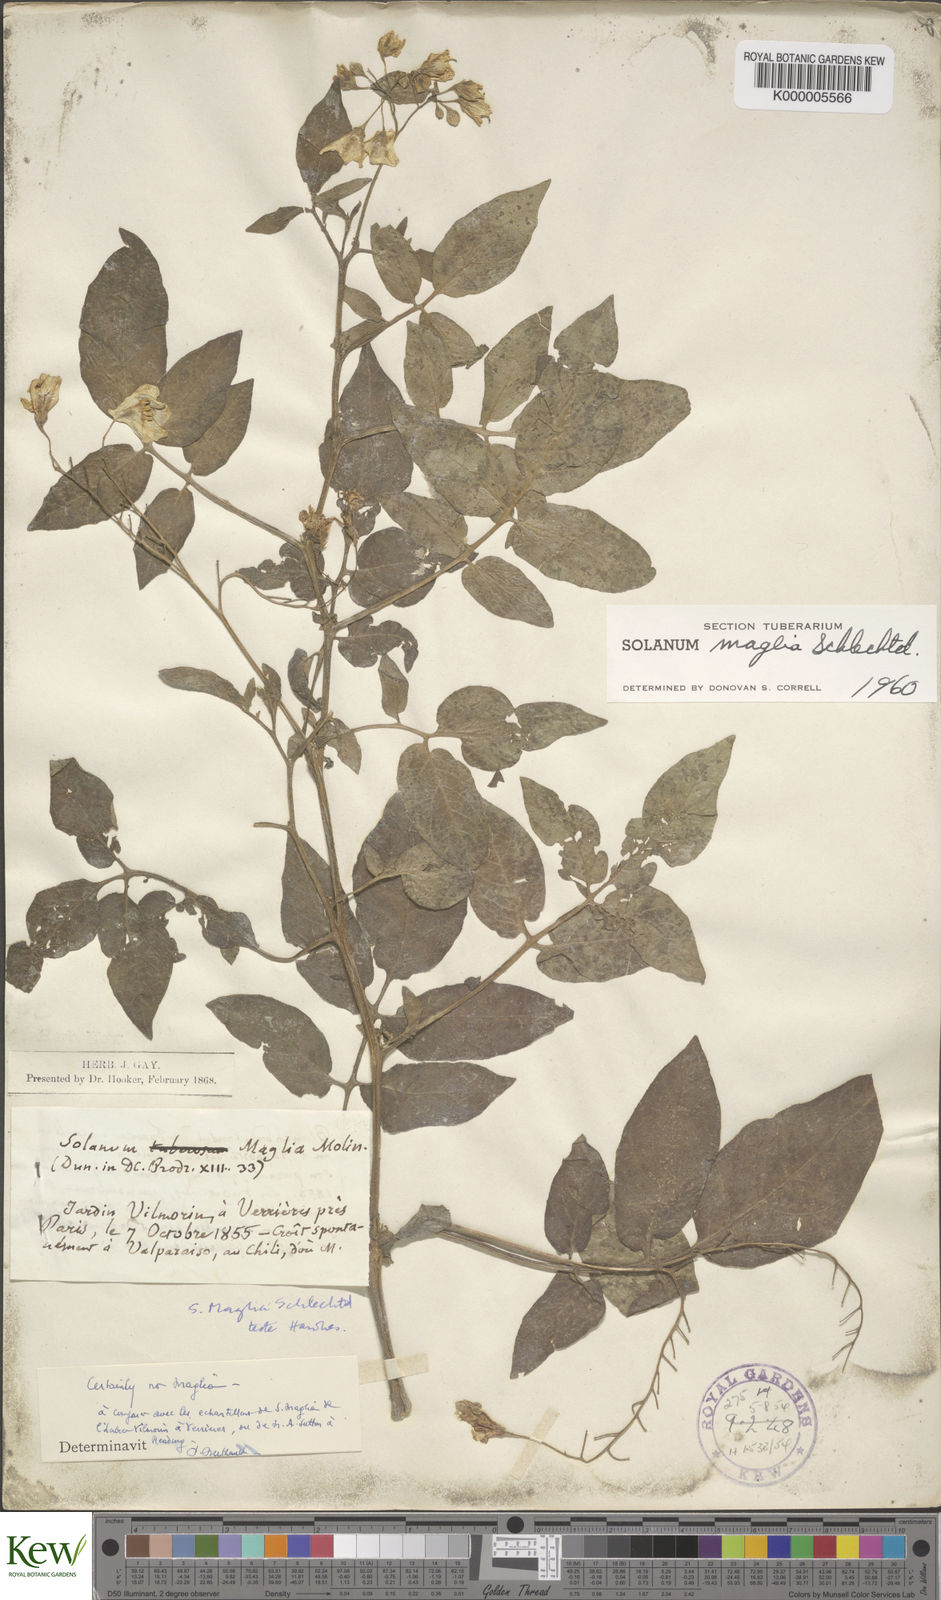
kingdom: Plantae
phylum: Tracheophyta
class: Magnoliopsida
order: Solanales
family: Solanaceae
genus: Solanum
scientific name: Solanum maglia
